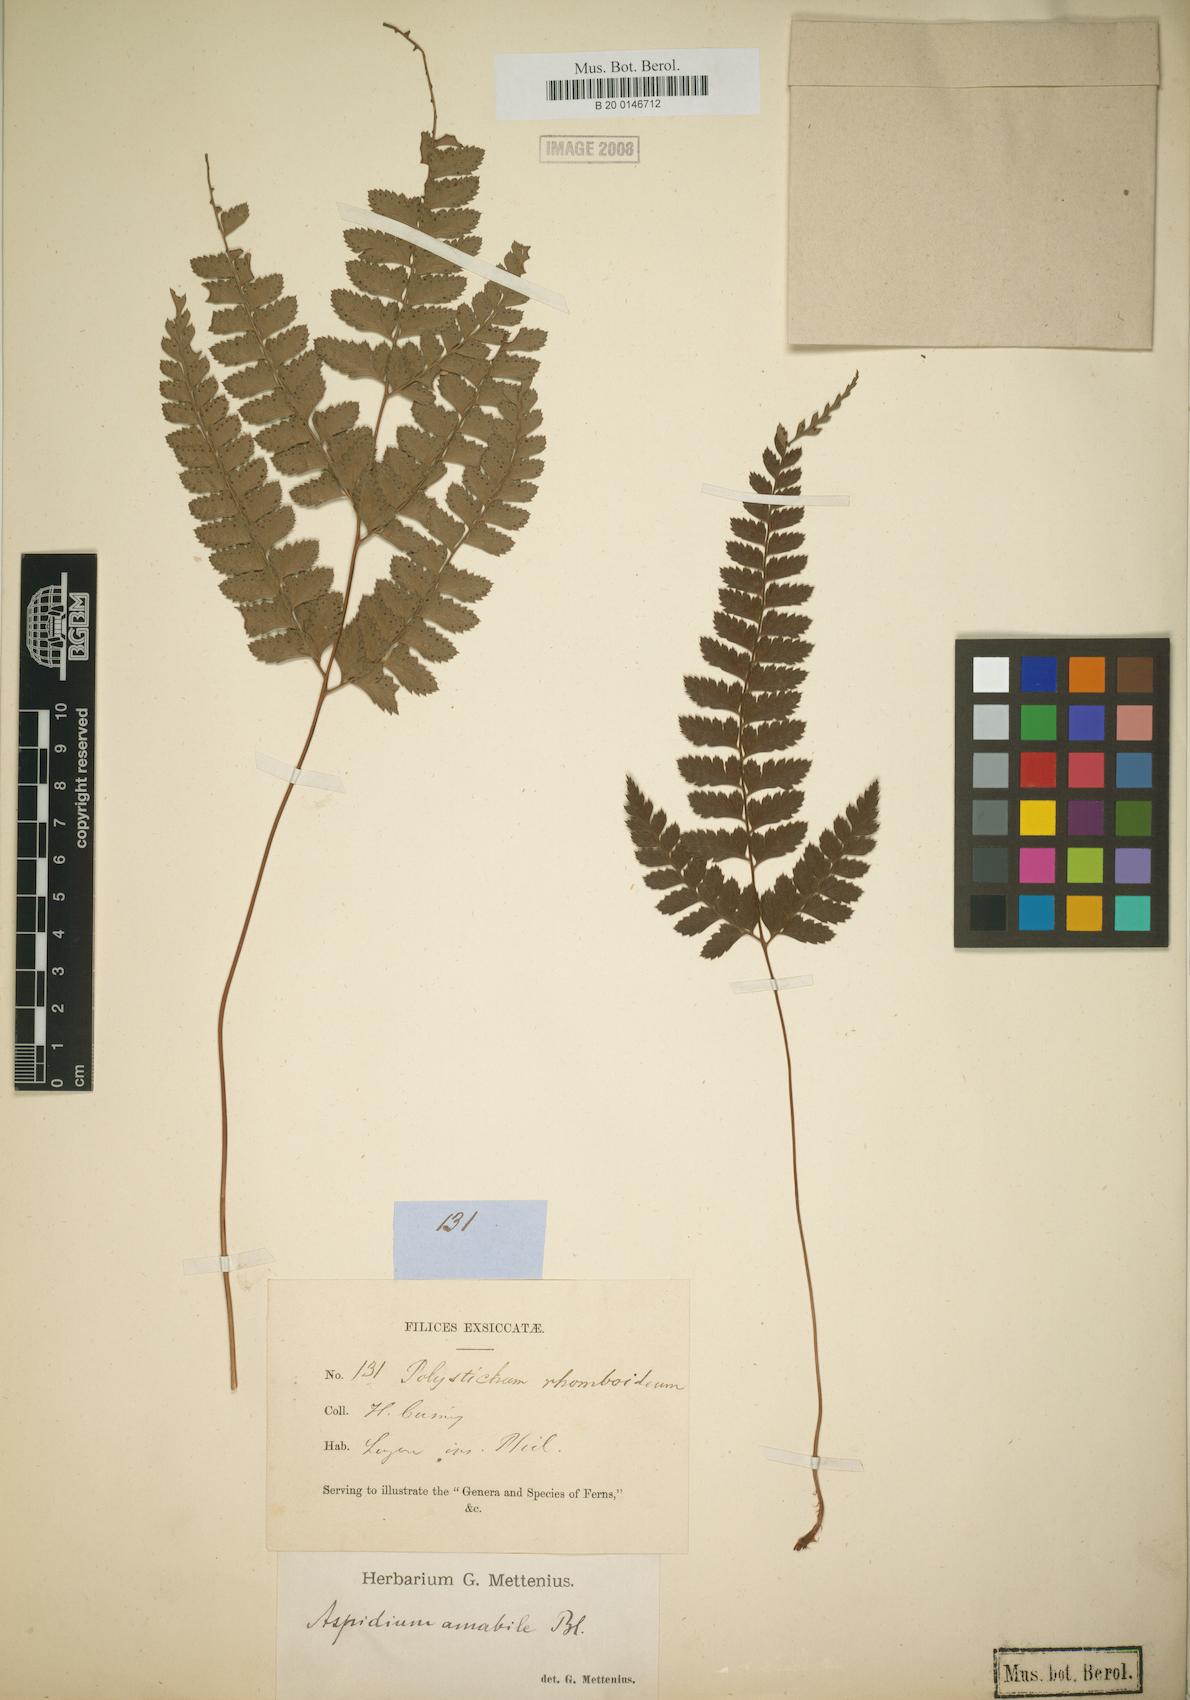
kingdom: Plantae
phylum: Tracheophyta
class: Polypodiopsida
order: Polypodiales
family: Dryopteridaceae
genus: Arachniodes
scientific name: Arachniodes amabilis
